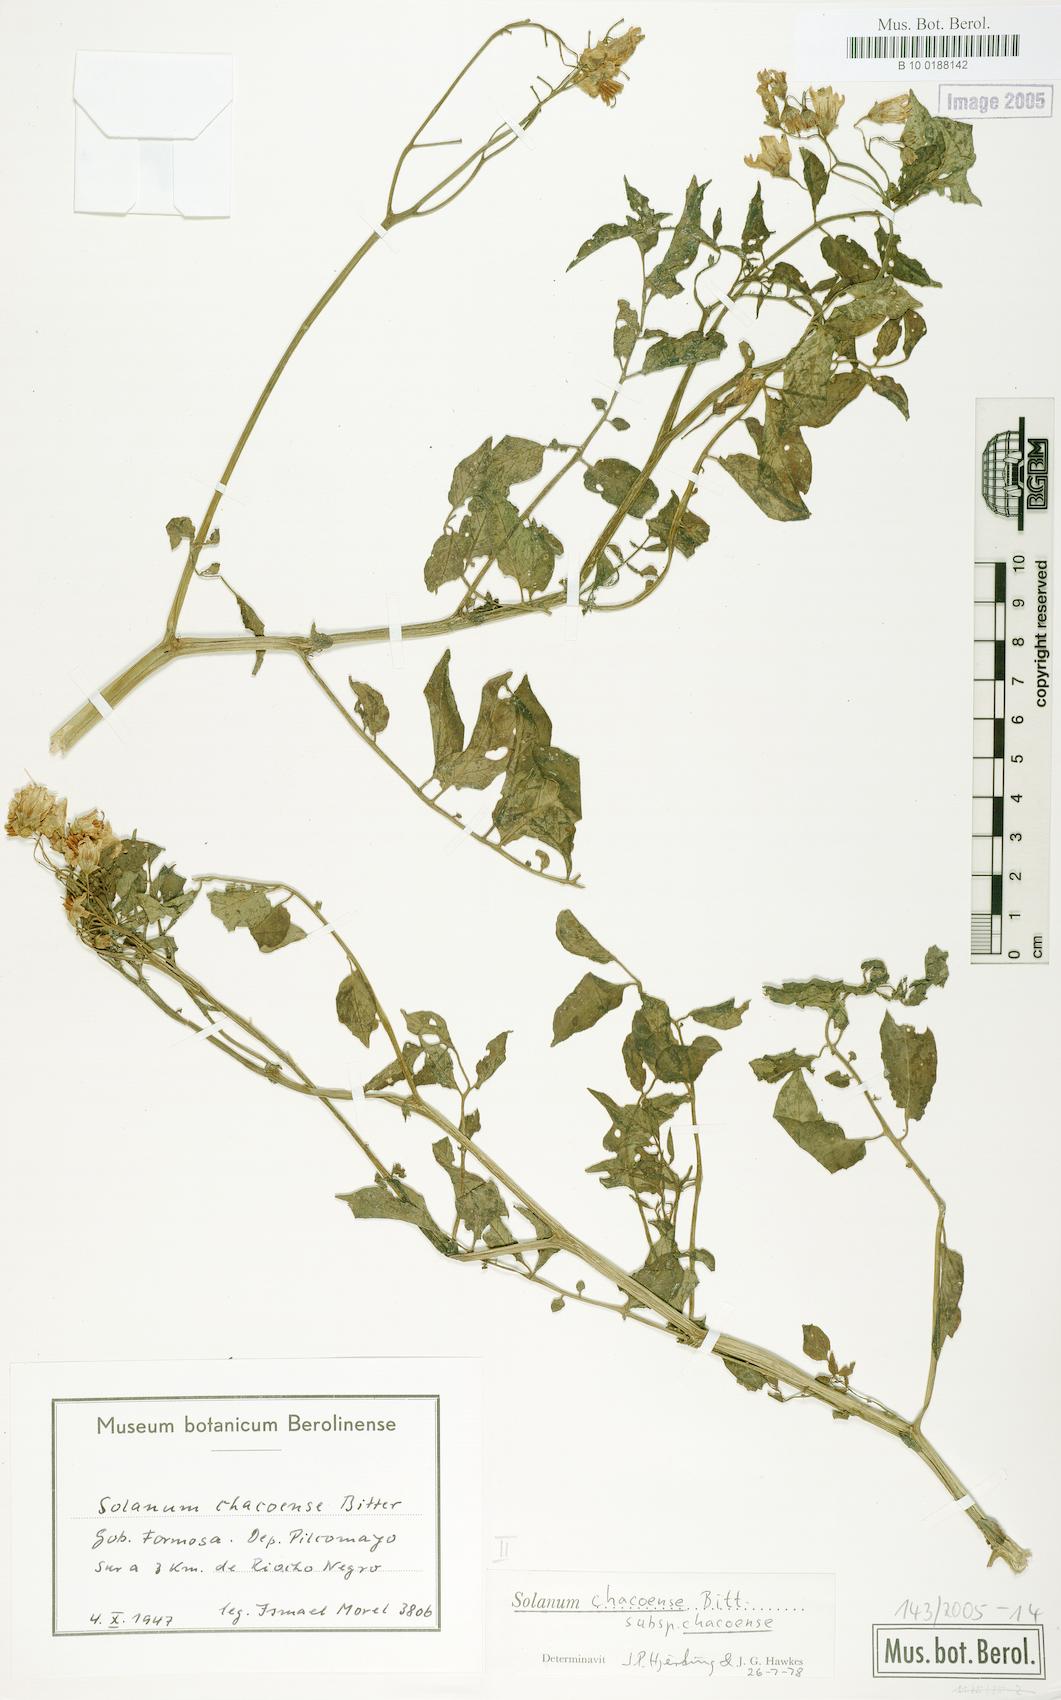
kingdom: Plantae
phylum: Tracheophyta
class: Magnoliopsida
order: Solanales
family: Solanaceae
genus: Solanum
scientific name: Solanum chacoense
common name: Chaco potato
